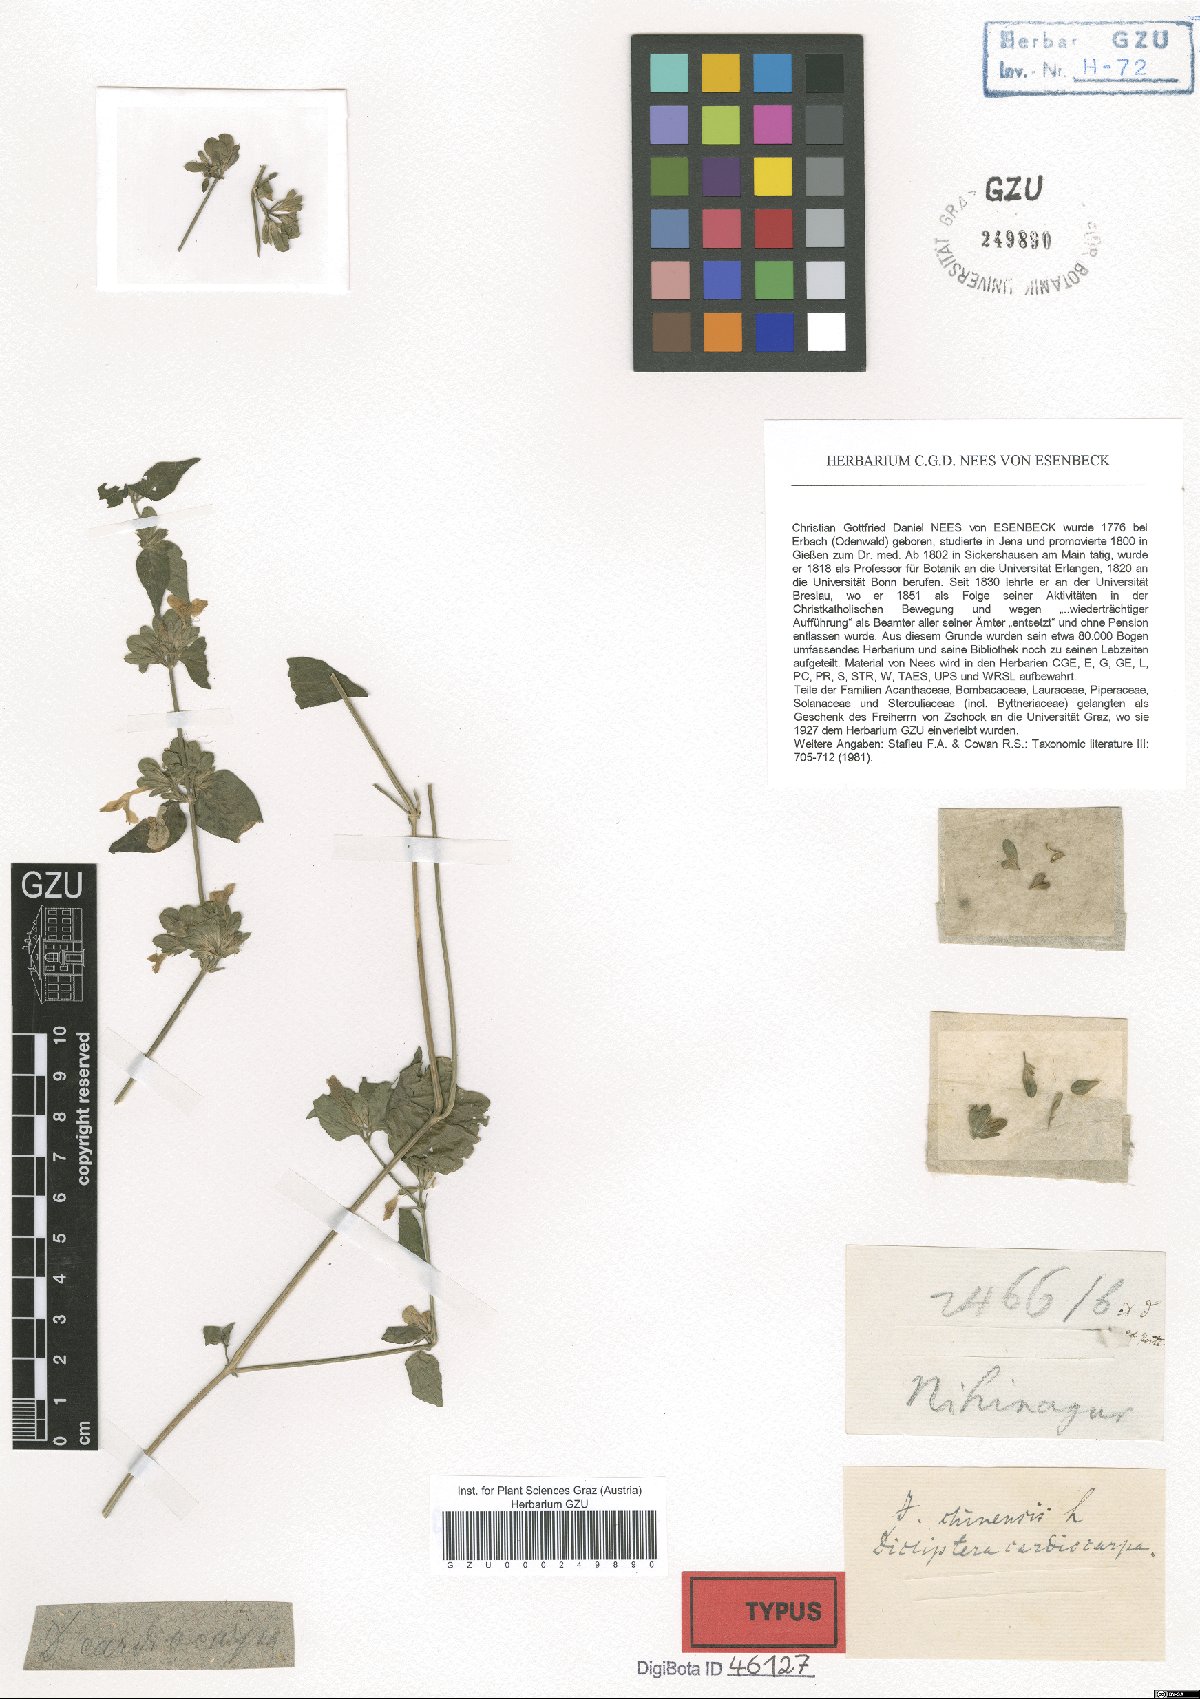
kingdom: Plantae
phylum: Tracheophyta
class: Magnoliopsida
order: Lamiales
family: Acanthaceae
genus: Dicliptera
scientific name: Dicliptera bupleuroides
